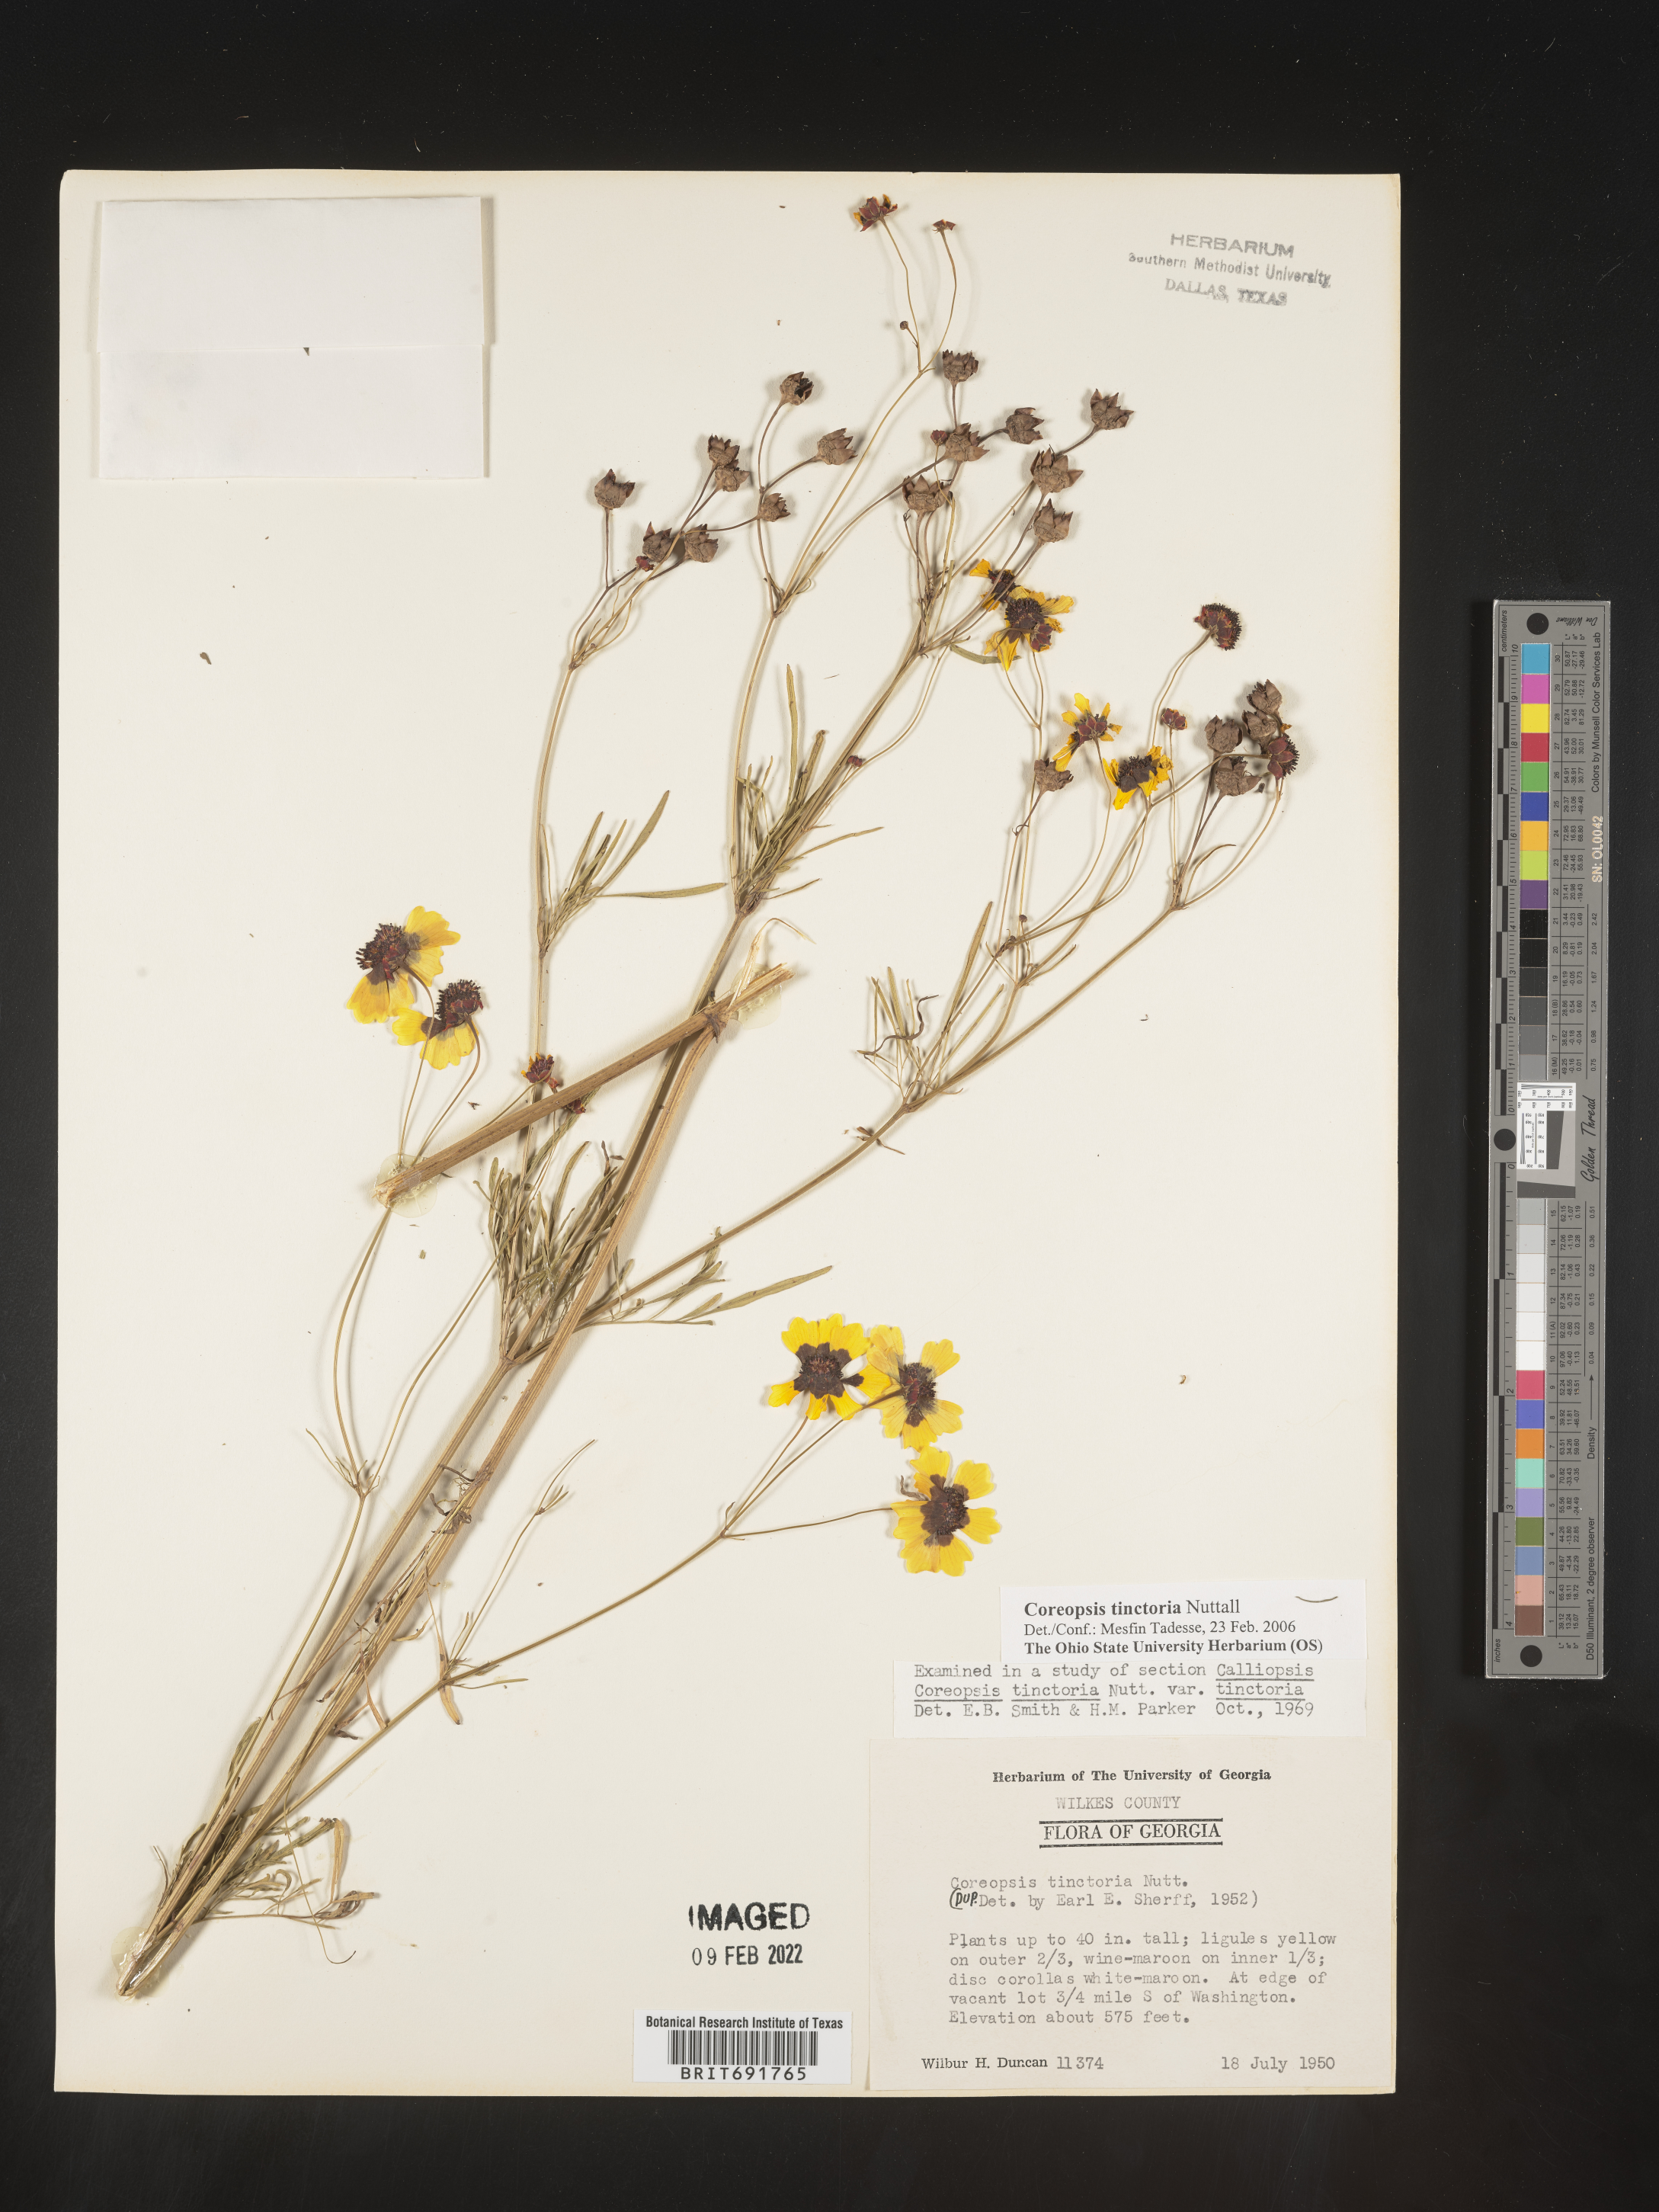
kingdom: Plantae
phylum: Tracheophyta
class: Magnoliopsida
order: Asterales
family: Asteraceae
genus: Coreopsis
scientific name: Coreopsis tinctoria
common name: Garden tickseed
